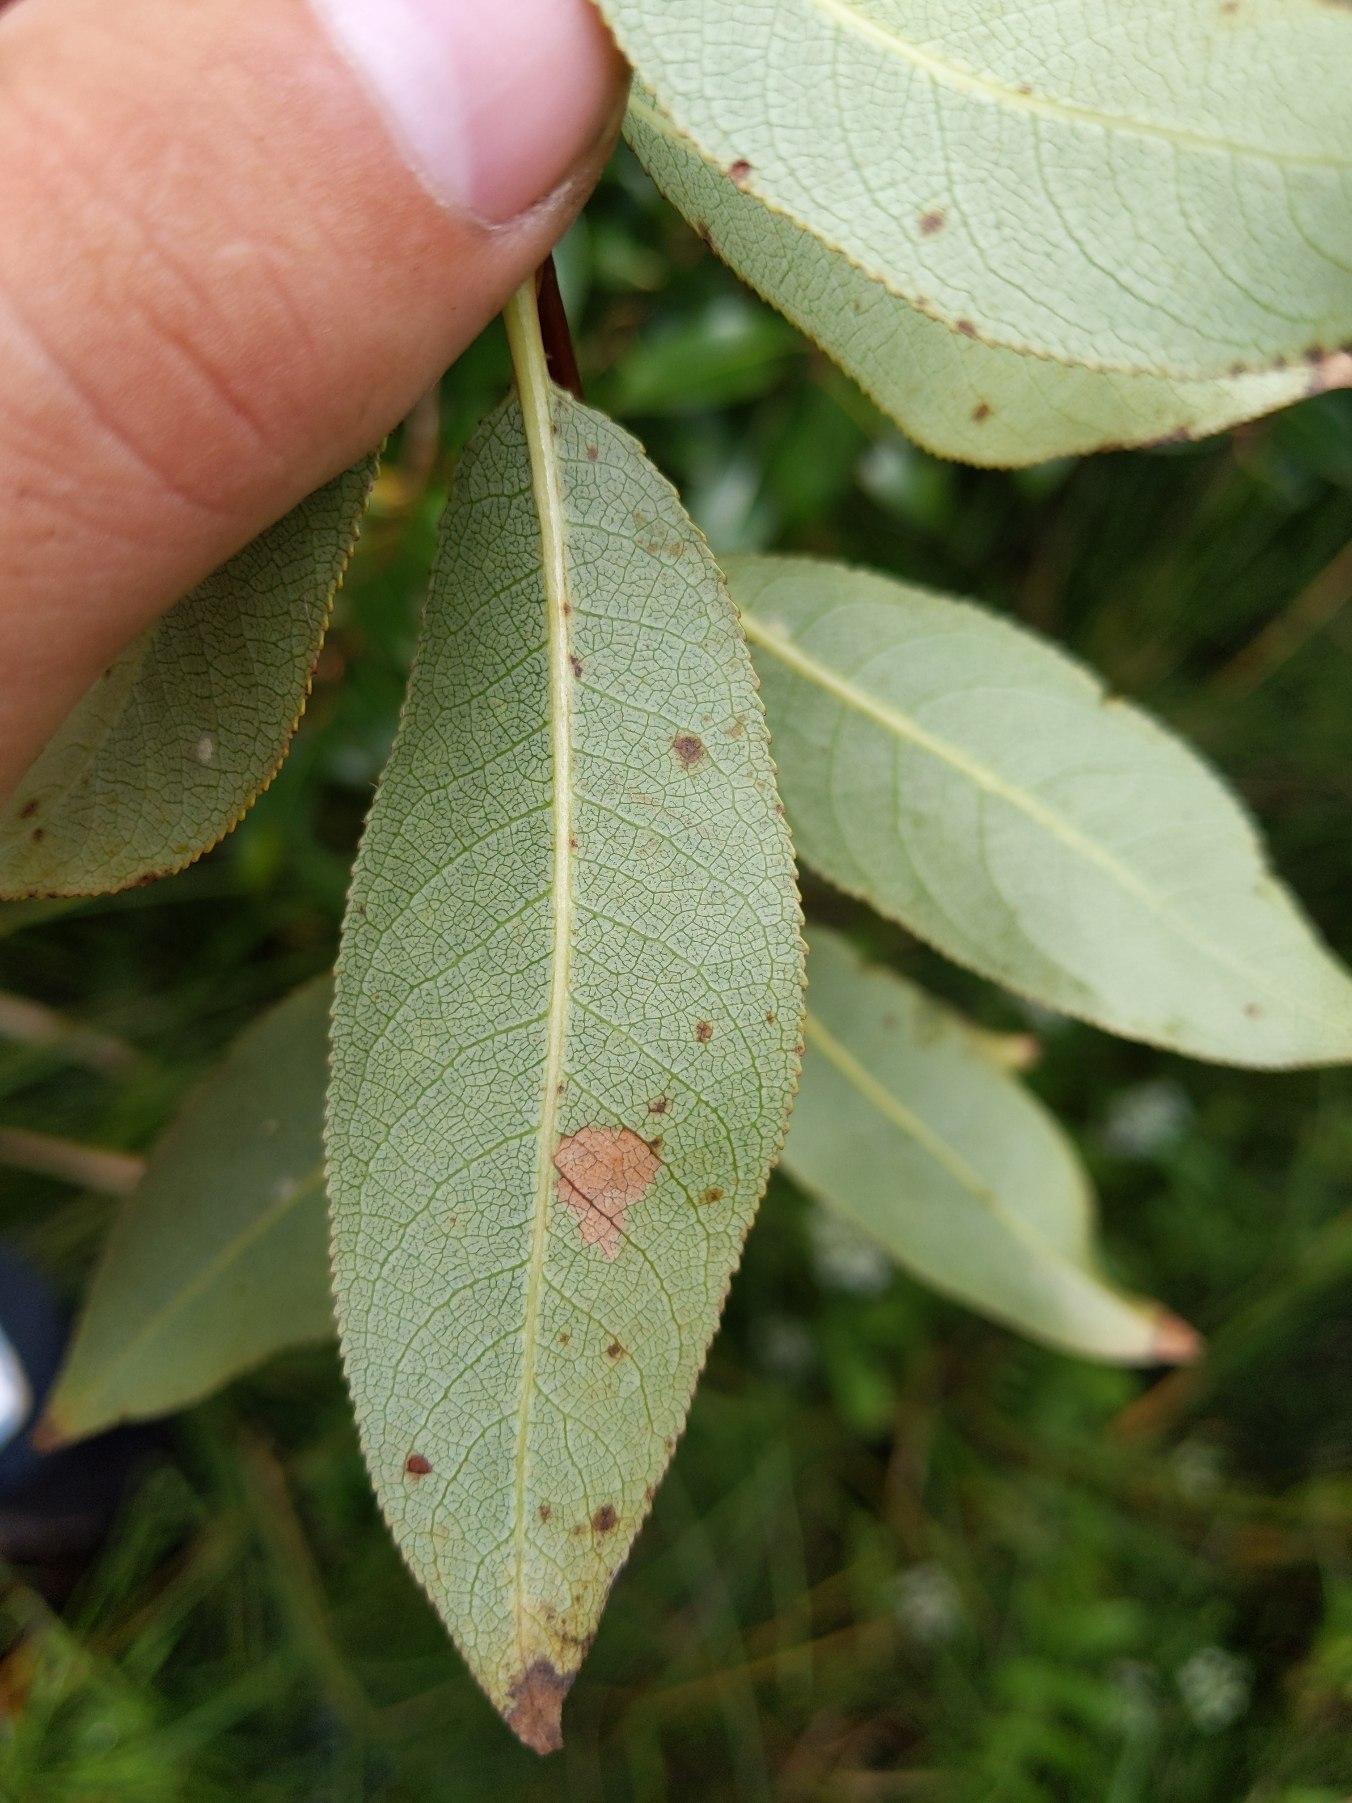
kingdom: Plantae
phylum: Tracheophyta
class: Magnoliopsida
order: Malpighiales
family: Salicaceae
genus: Salix
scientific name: Salix pentandra
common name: Femhannet pil
